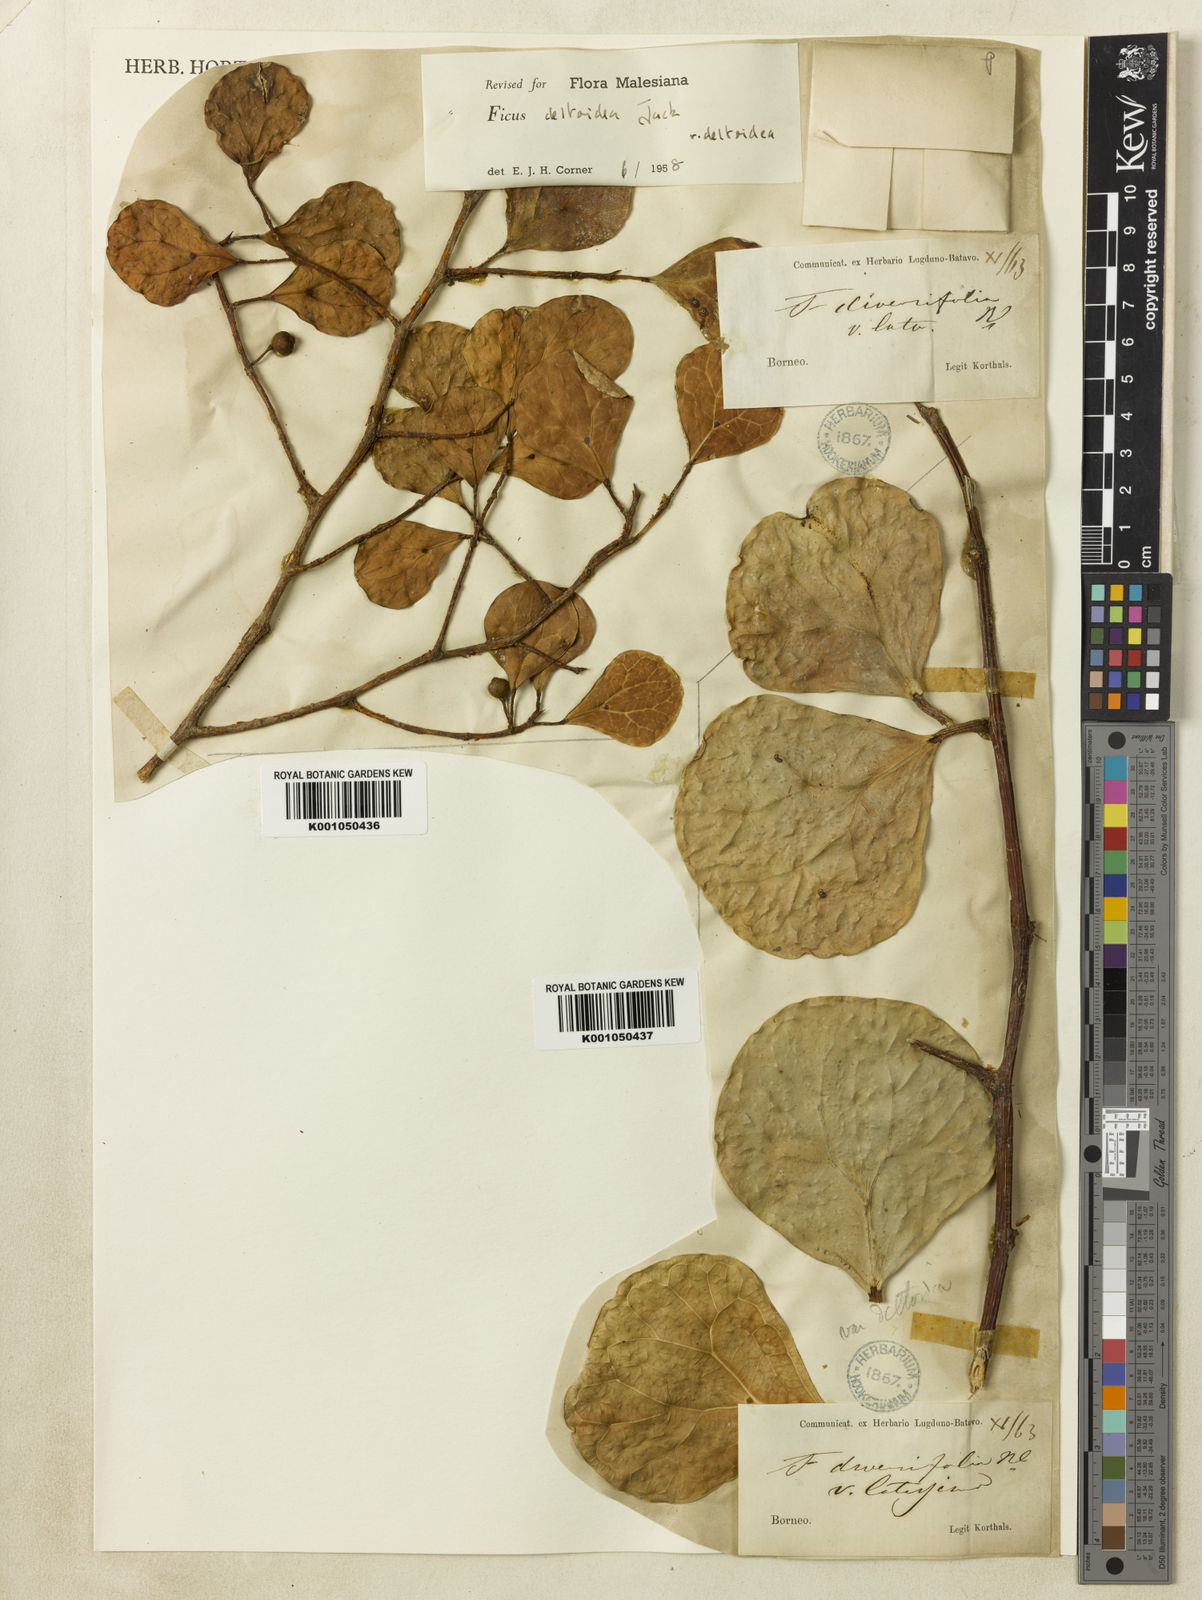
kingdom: Plantae
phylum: Tracheophyta
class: Magnoliopsida
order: Rosales
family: Moraceae
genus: Ficus
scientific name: Ficus deltoidea
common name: Mistletoe fig
